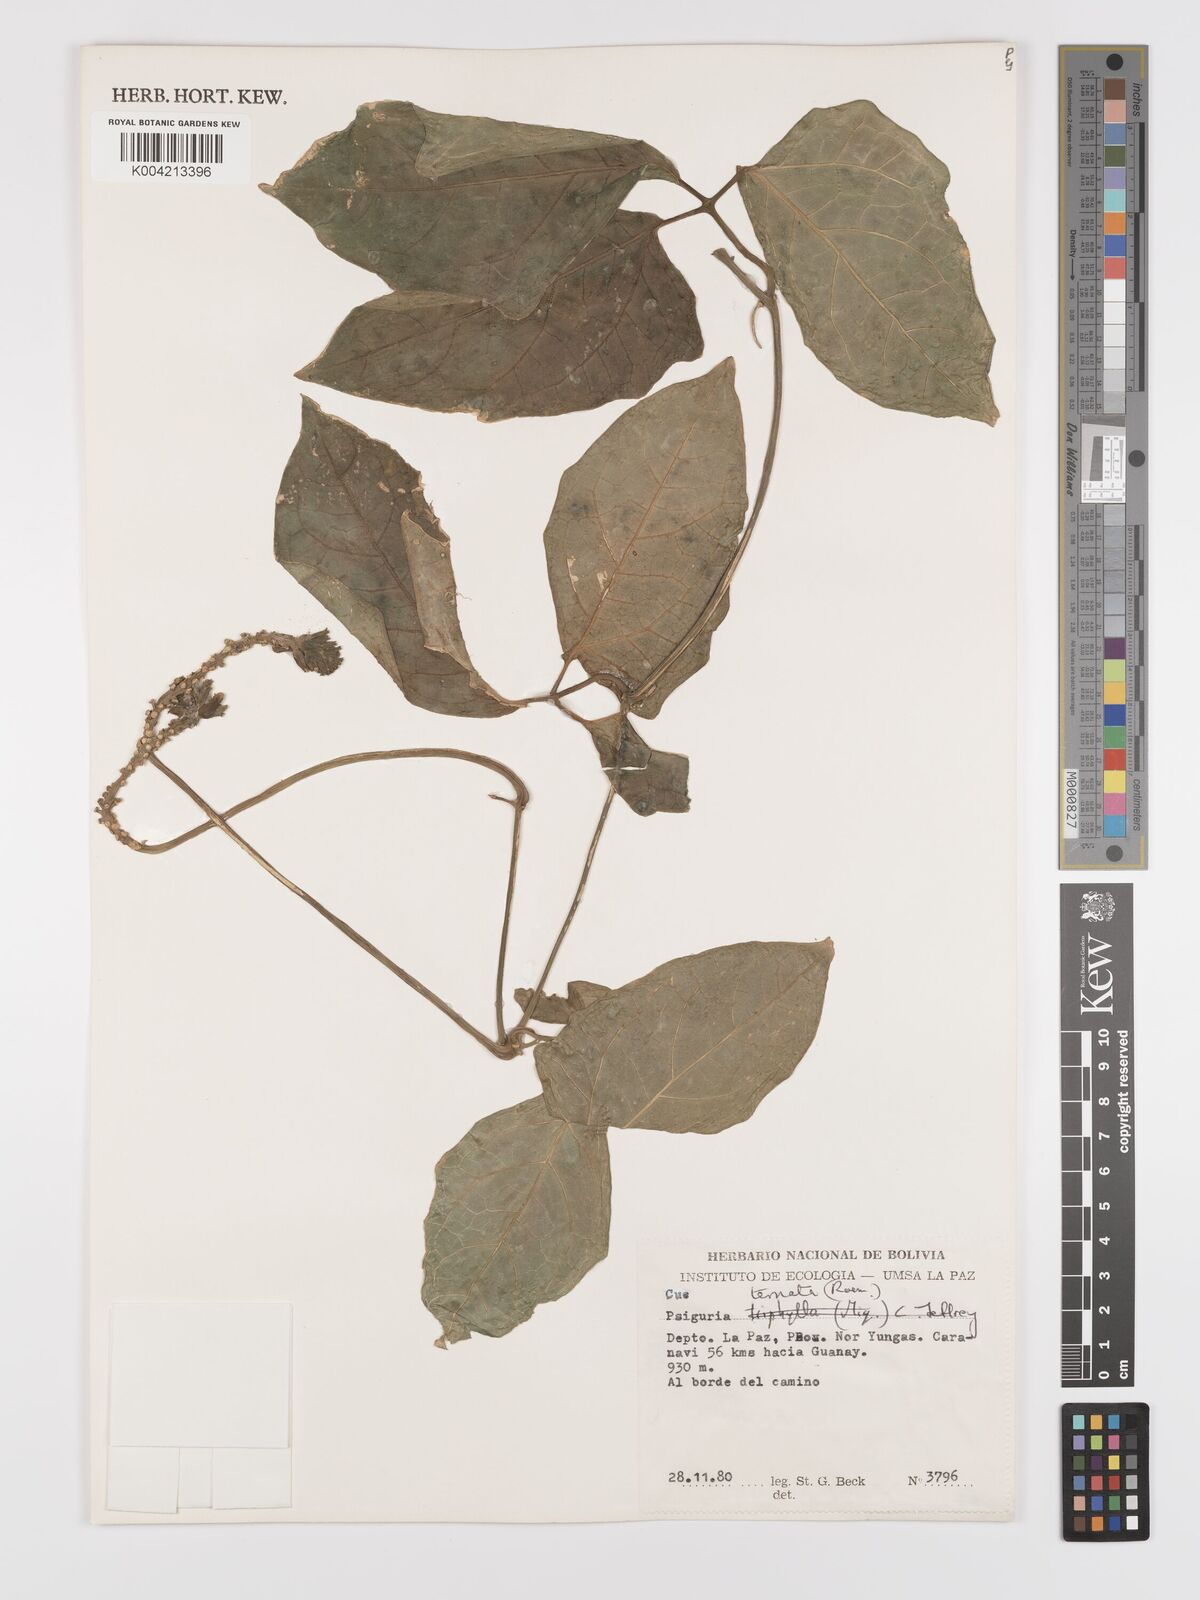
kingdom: Plantae
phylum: Tracheophyta
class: Magnoliopsida
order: Cucurbitales
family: Cucurbitaceae
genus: Psiguria
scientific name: Psiguria ternata
